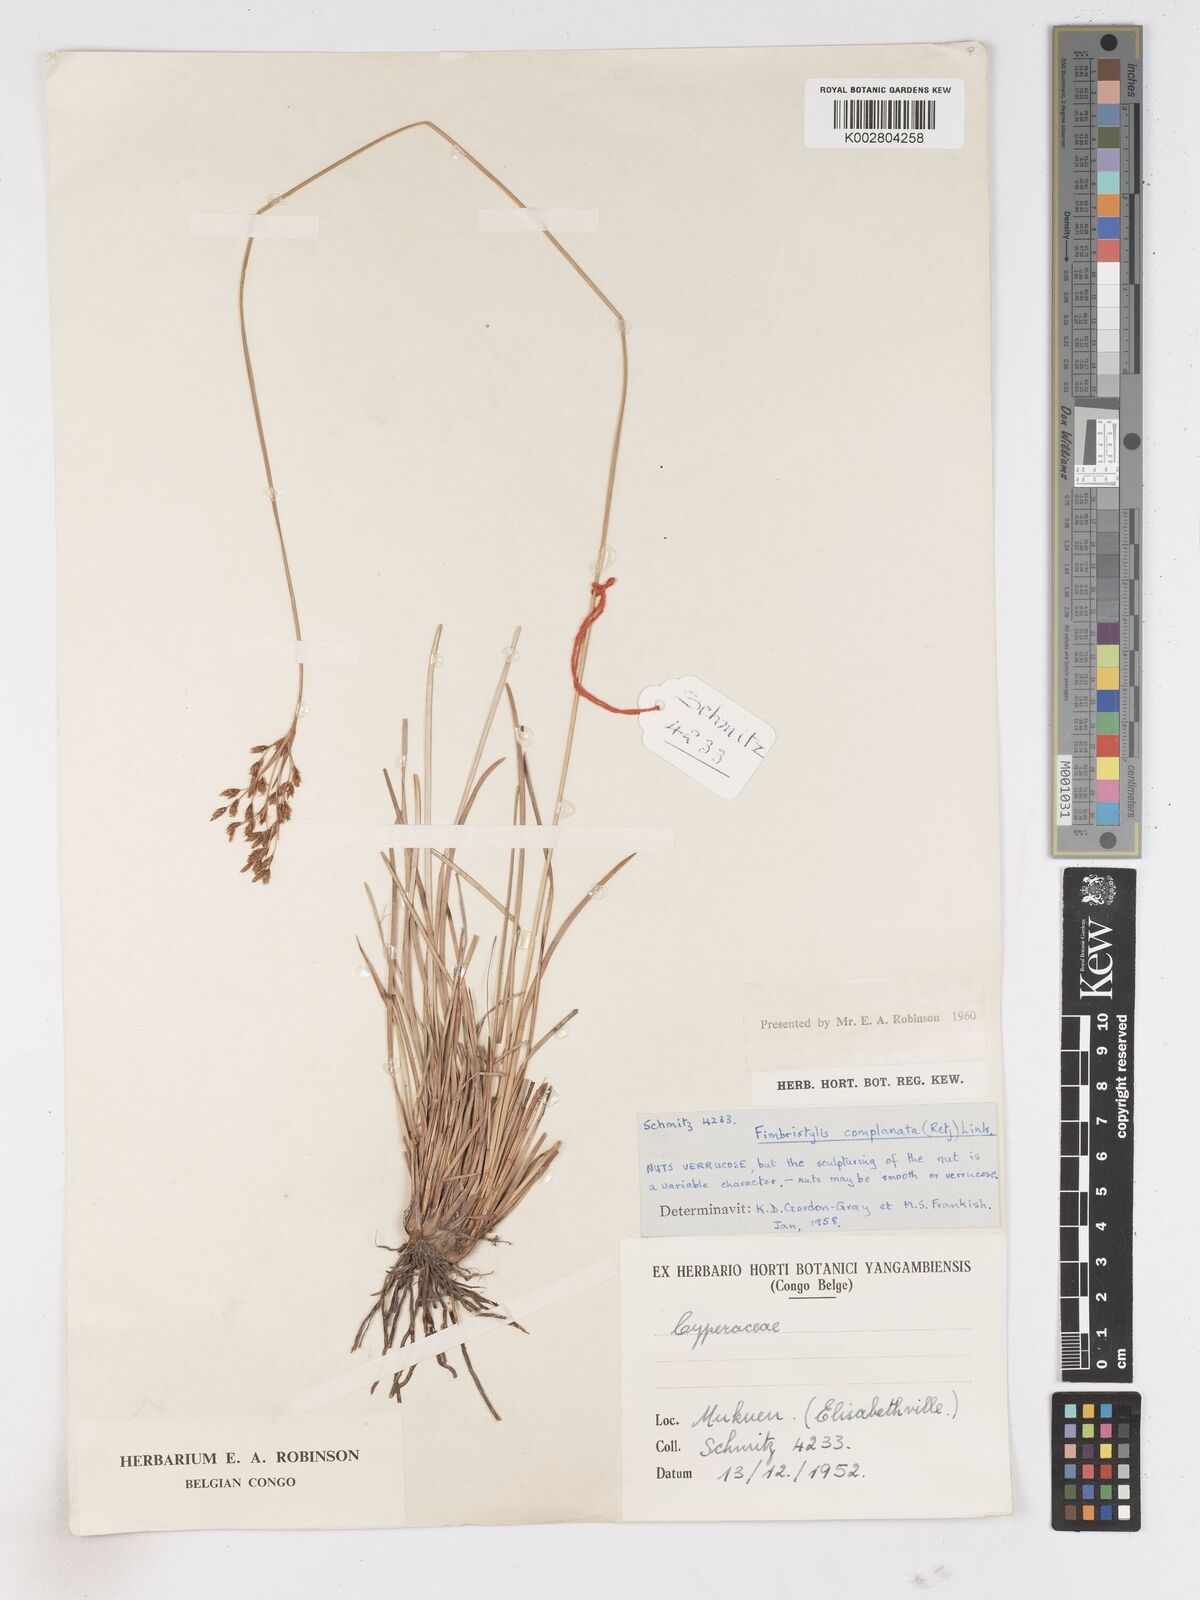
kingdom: Plantae
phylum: Tracheophyta
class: Liliopsida
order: Poales
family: Cyperaceae
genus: Fimbristylis
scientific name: Fimbristylis complanata
